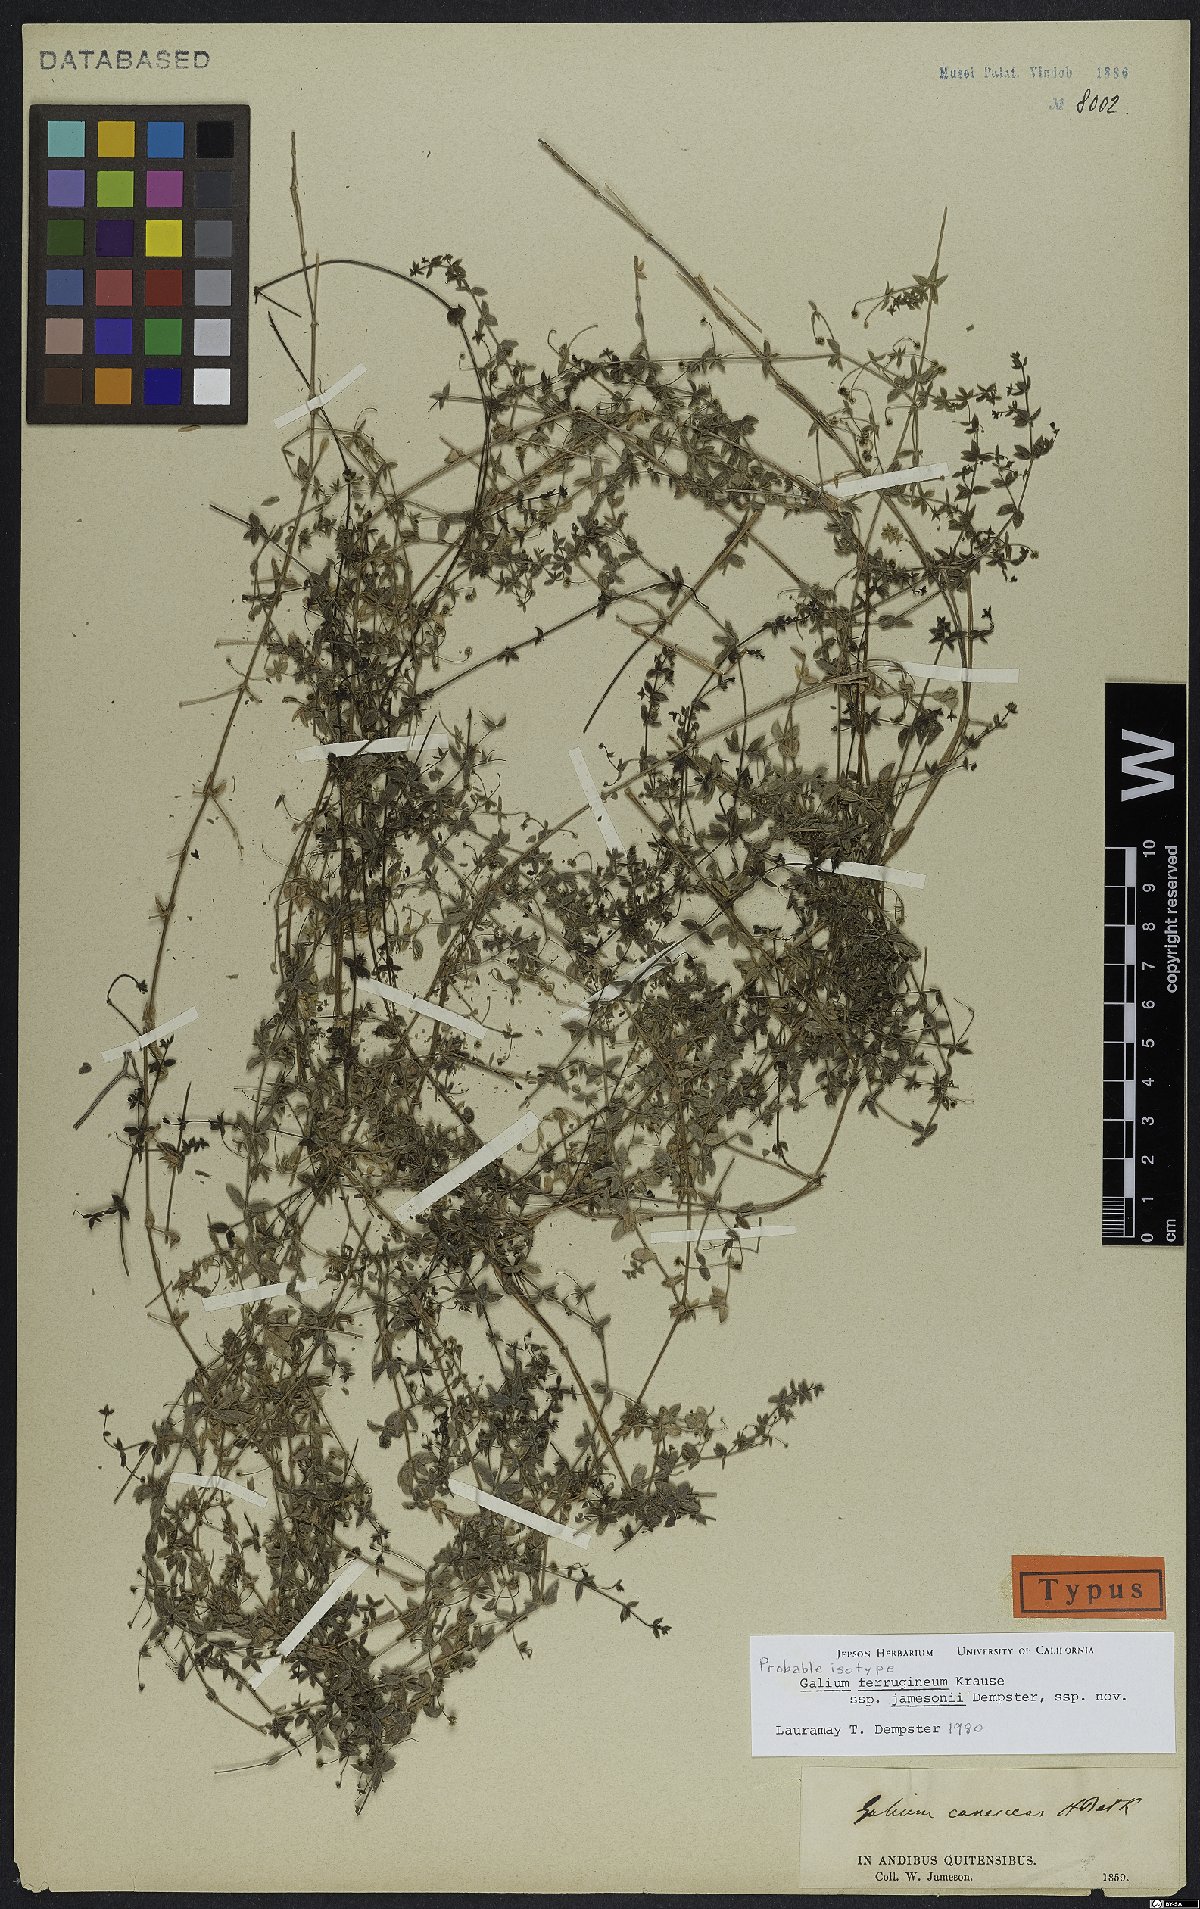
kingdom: Plantae
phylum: Tracheophyta
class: Magnoliopsida
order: Gentianales
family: Rubiaceae
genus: Galium
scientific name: Galium ferrugineum
